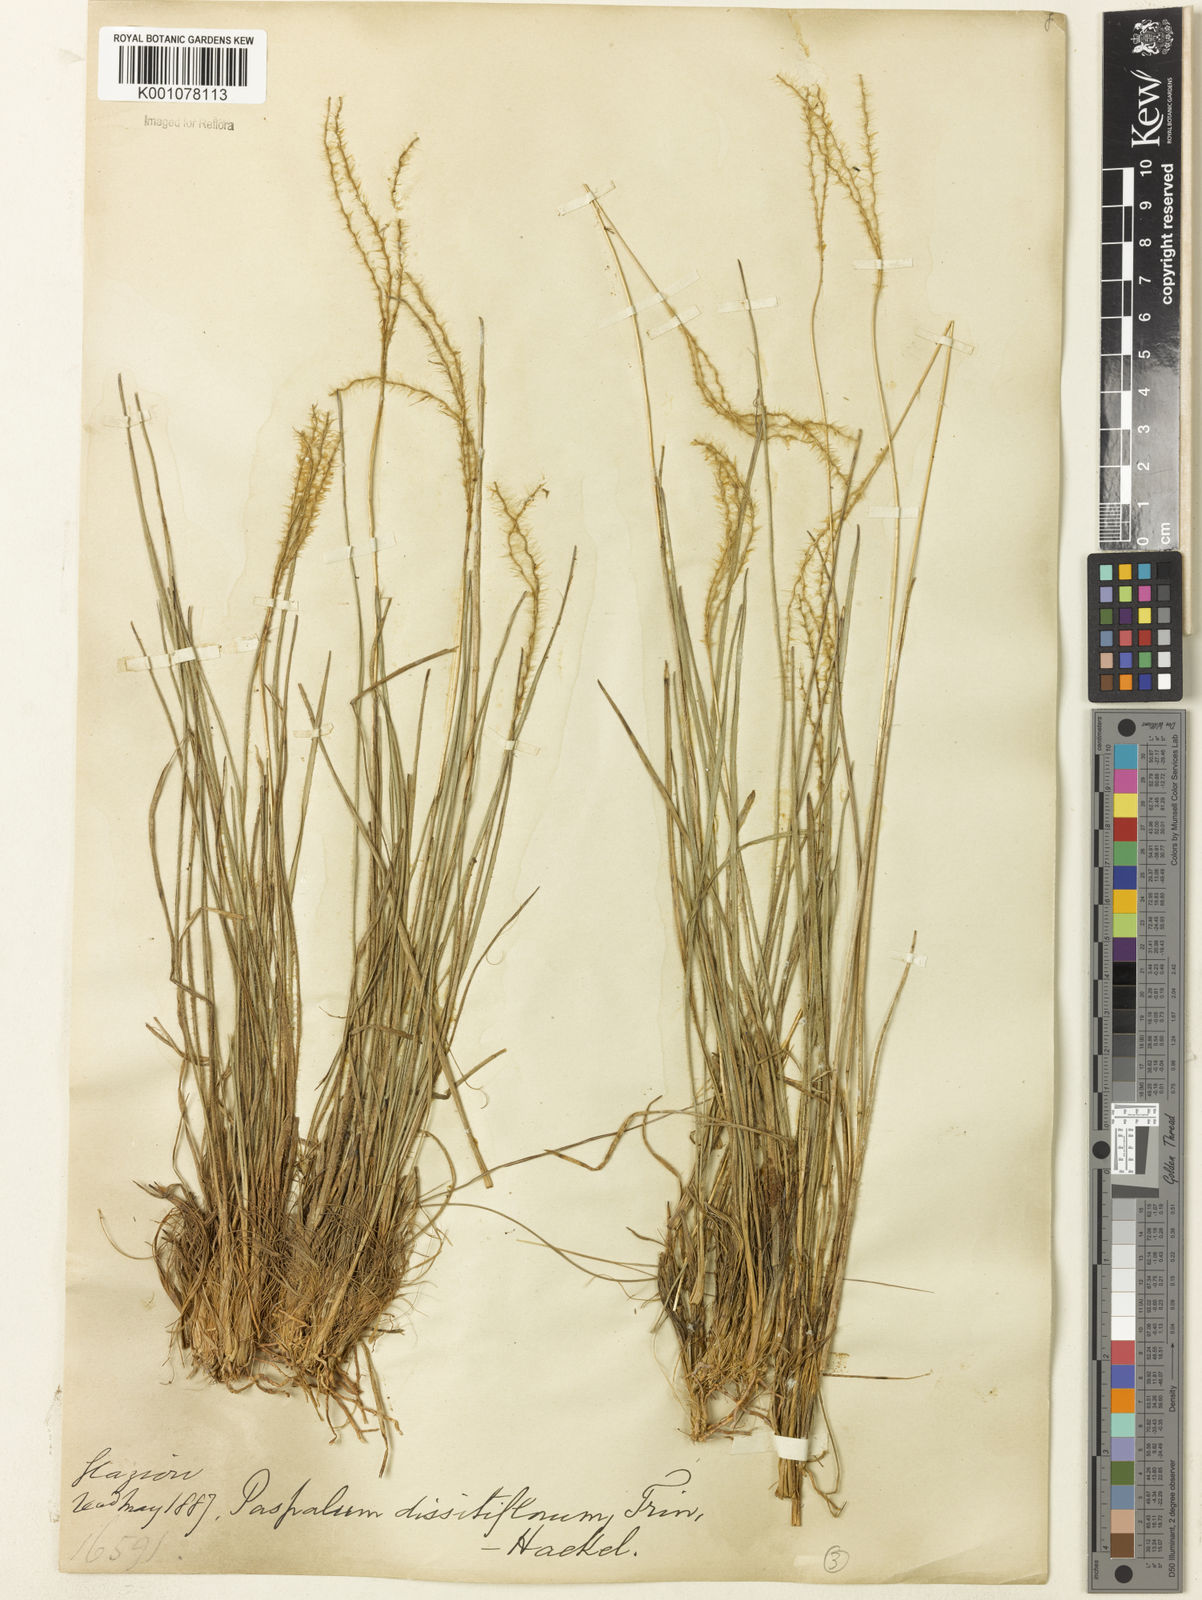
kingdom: Plantae
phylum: Tracheophyta
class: Liliopsida
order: Poales
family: Poaceae
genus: Axonopus
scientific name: Axonopus brasiliensis
